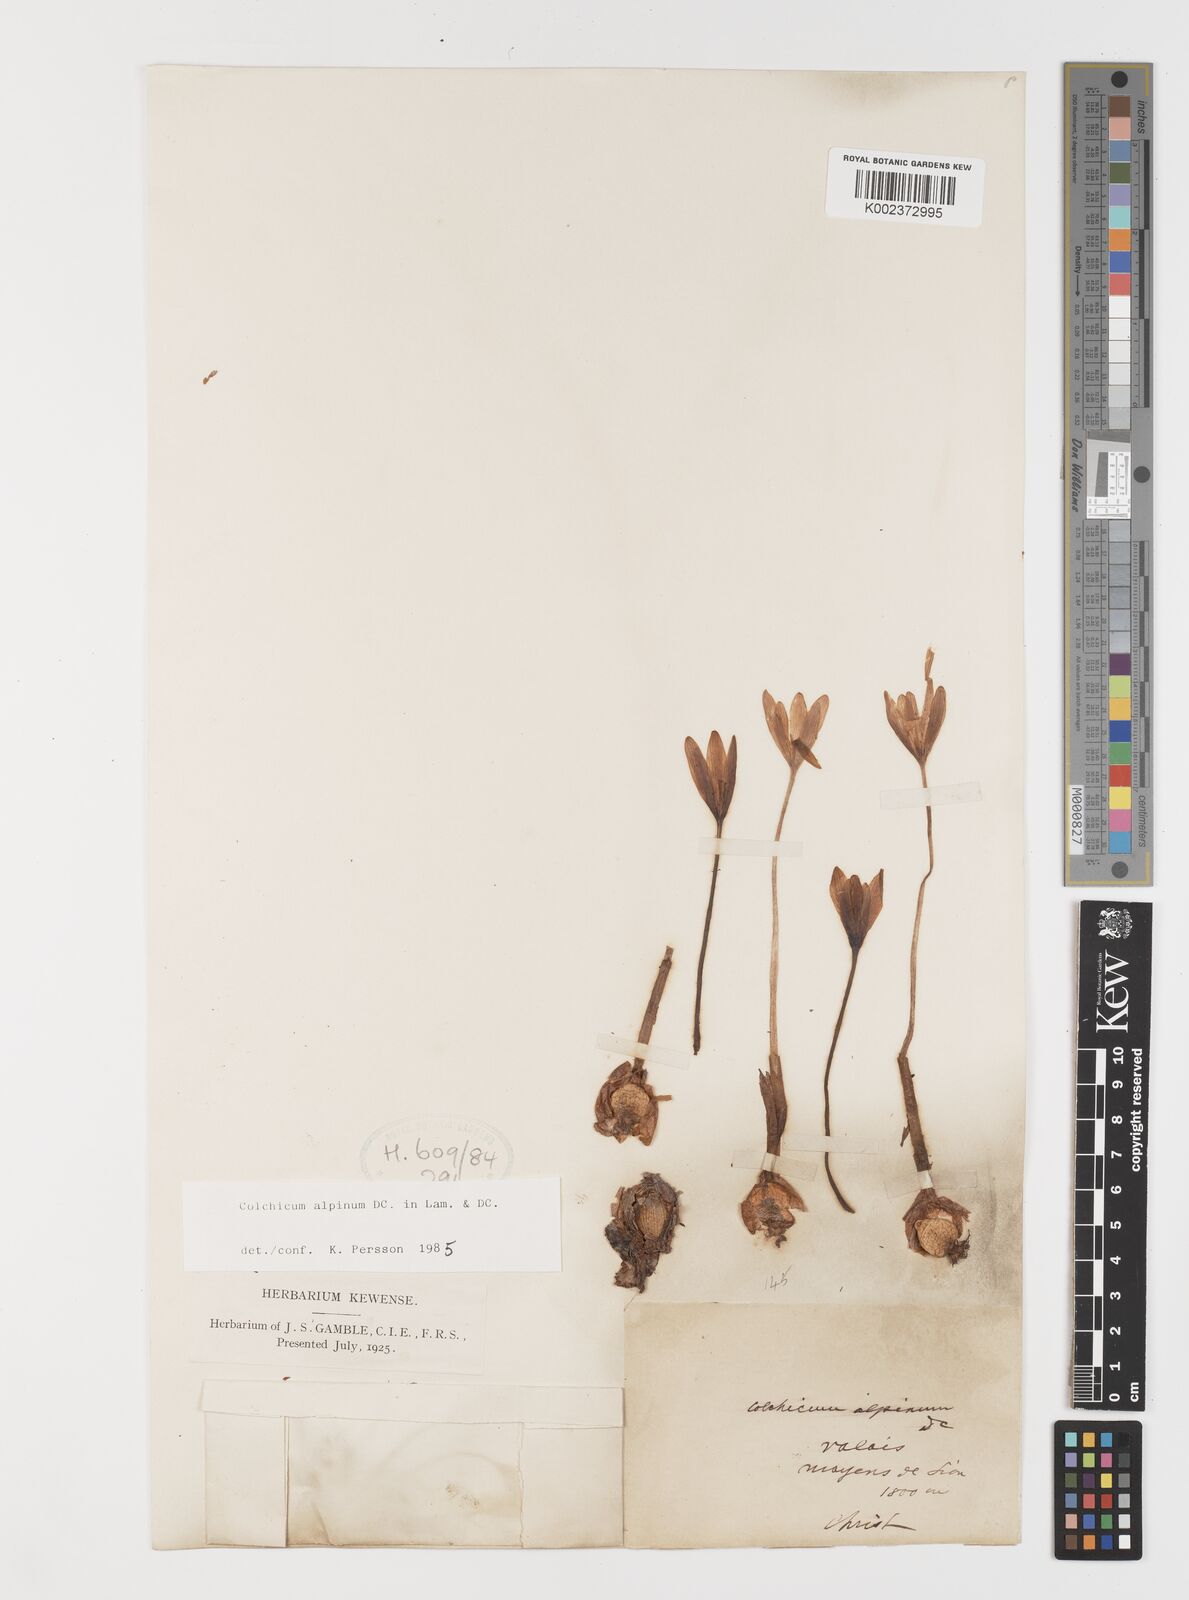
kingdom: Plantae
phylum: Tracheophyta
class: Liliopsida
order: Liliales
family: Colchicaceae
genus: Colchicum
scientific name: Colchicum alpinum
